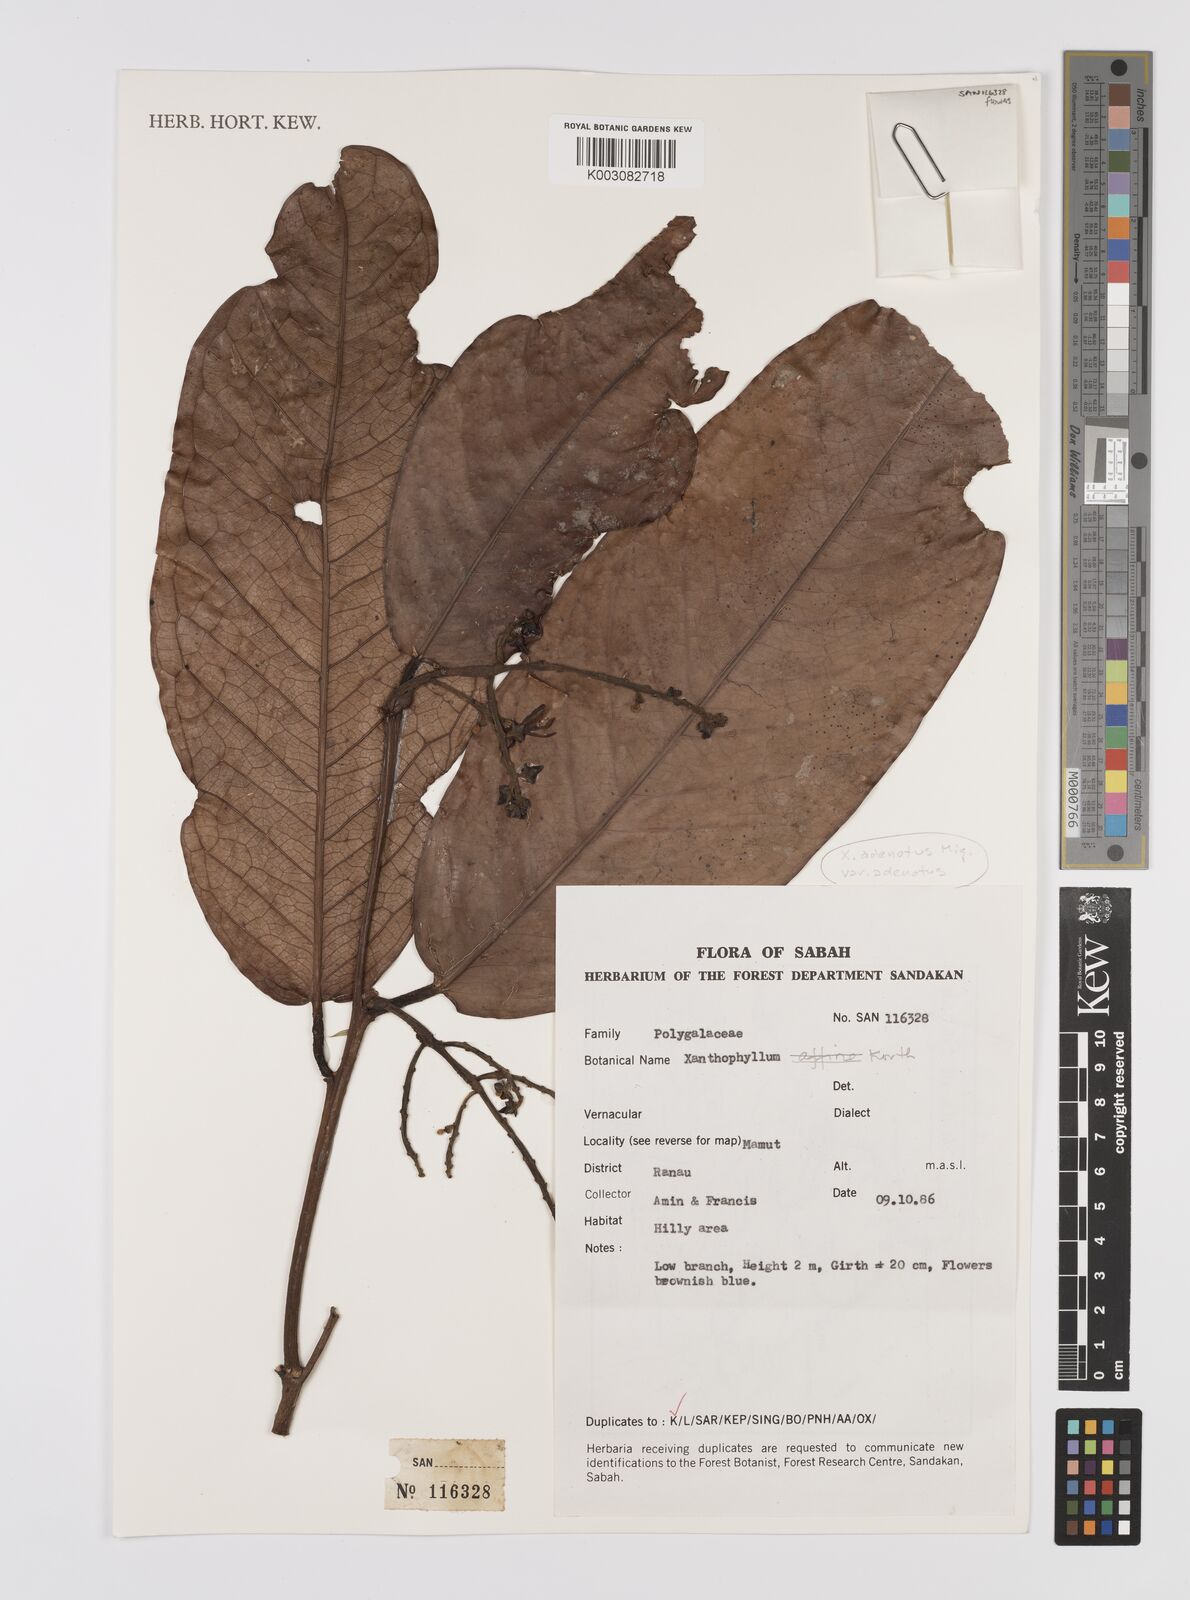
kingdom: Plantae
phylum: Tracheophyta
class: Magnoliopsida
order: Fabales
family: Polygalaceae
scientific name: Polygalaceae
